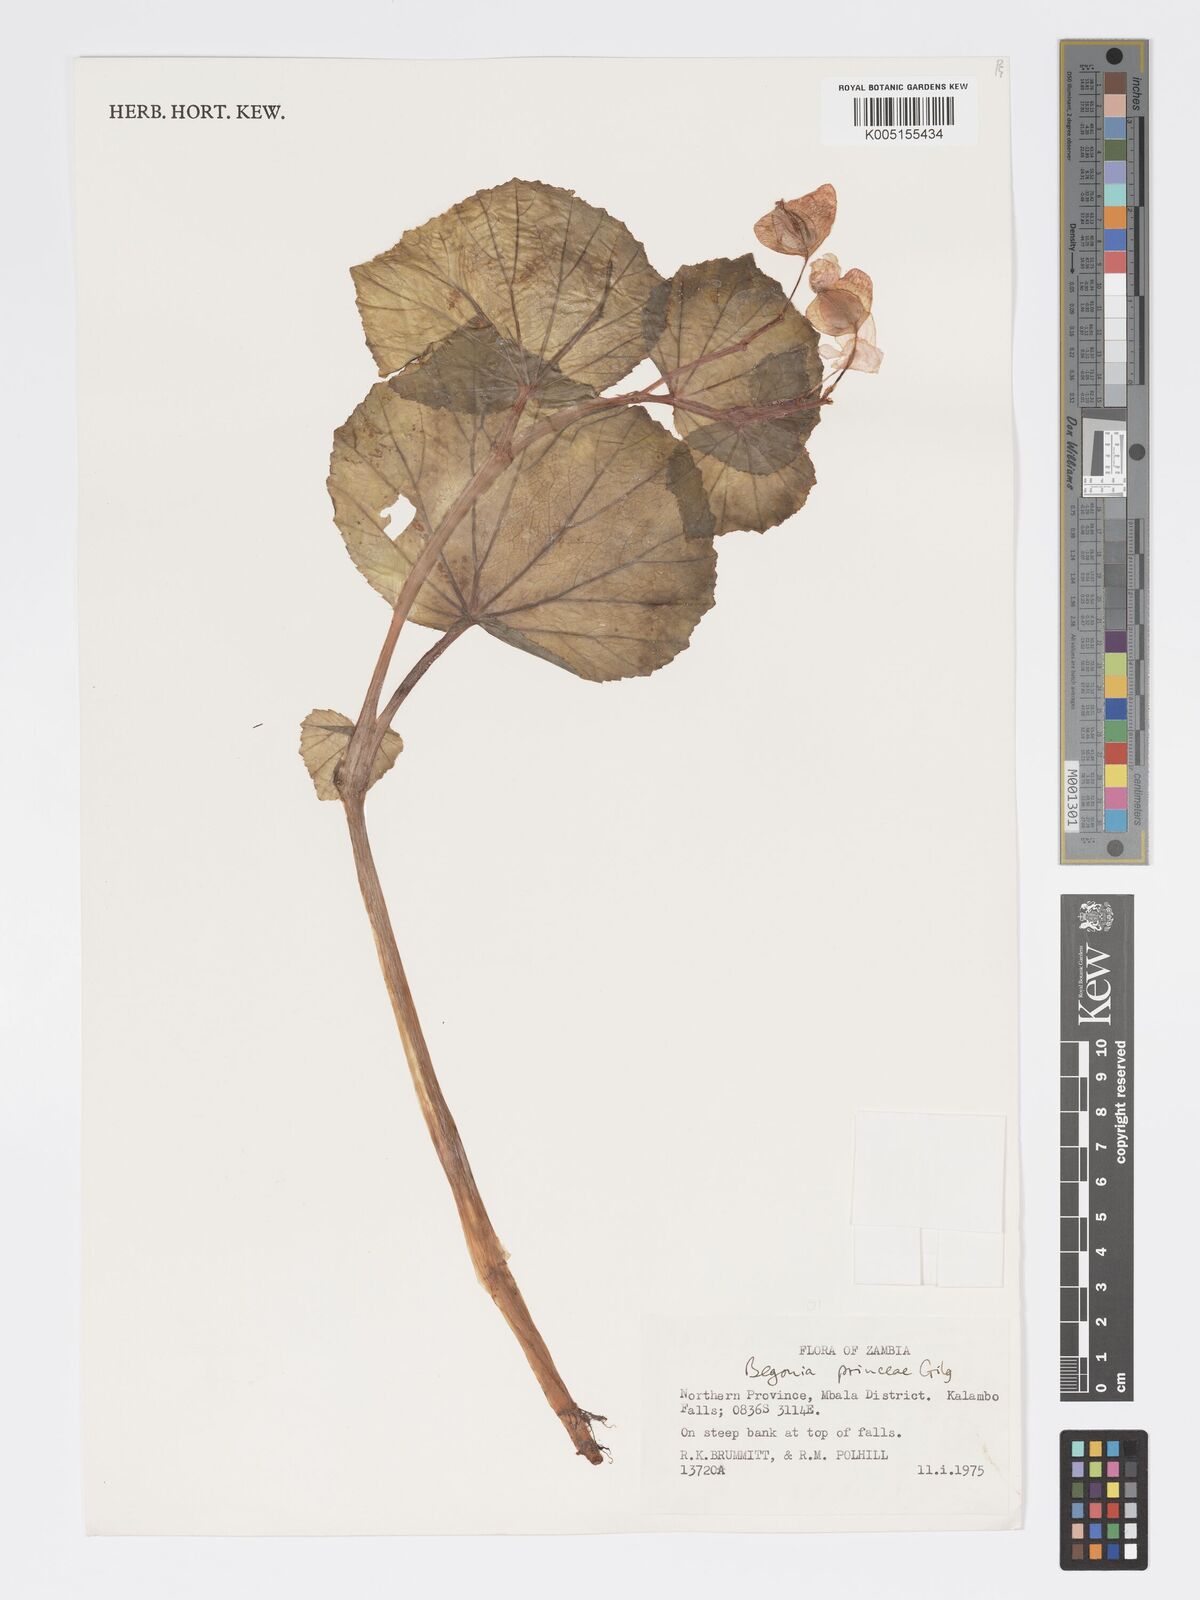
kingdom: Plantae
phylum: Tracheophyta
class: Magnoliopsida
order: Cucurbitales
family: Begoniaceae
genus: Begonia
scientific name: Begonia princeae
